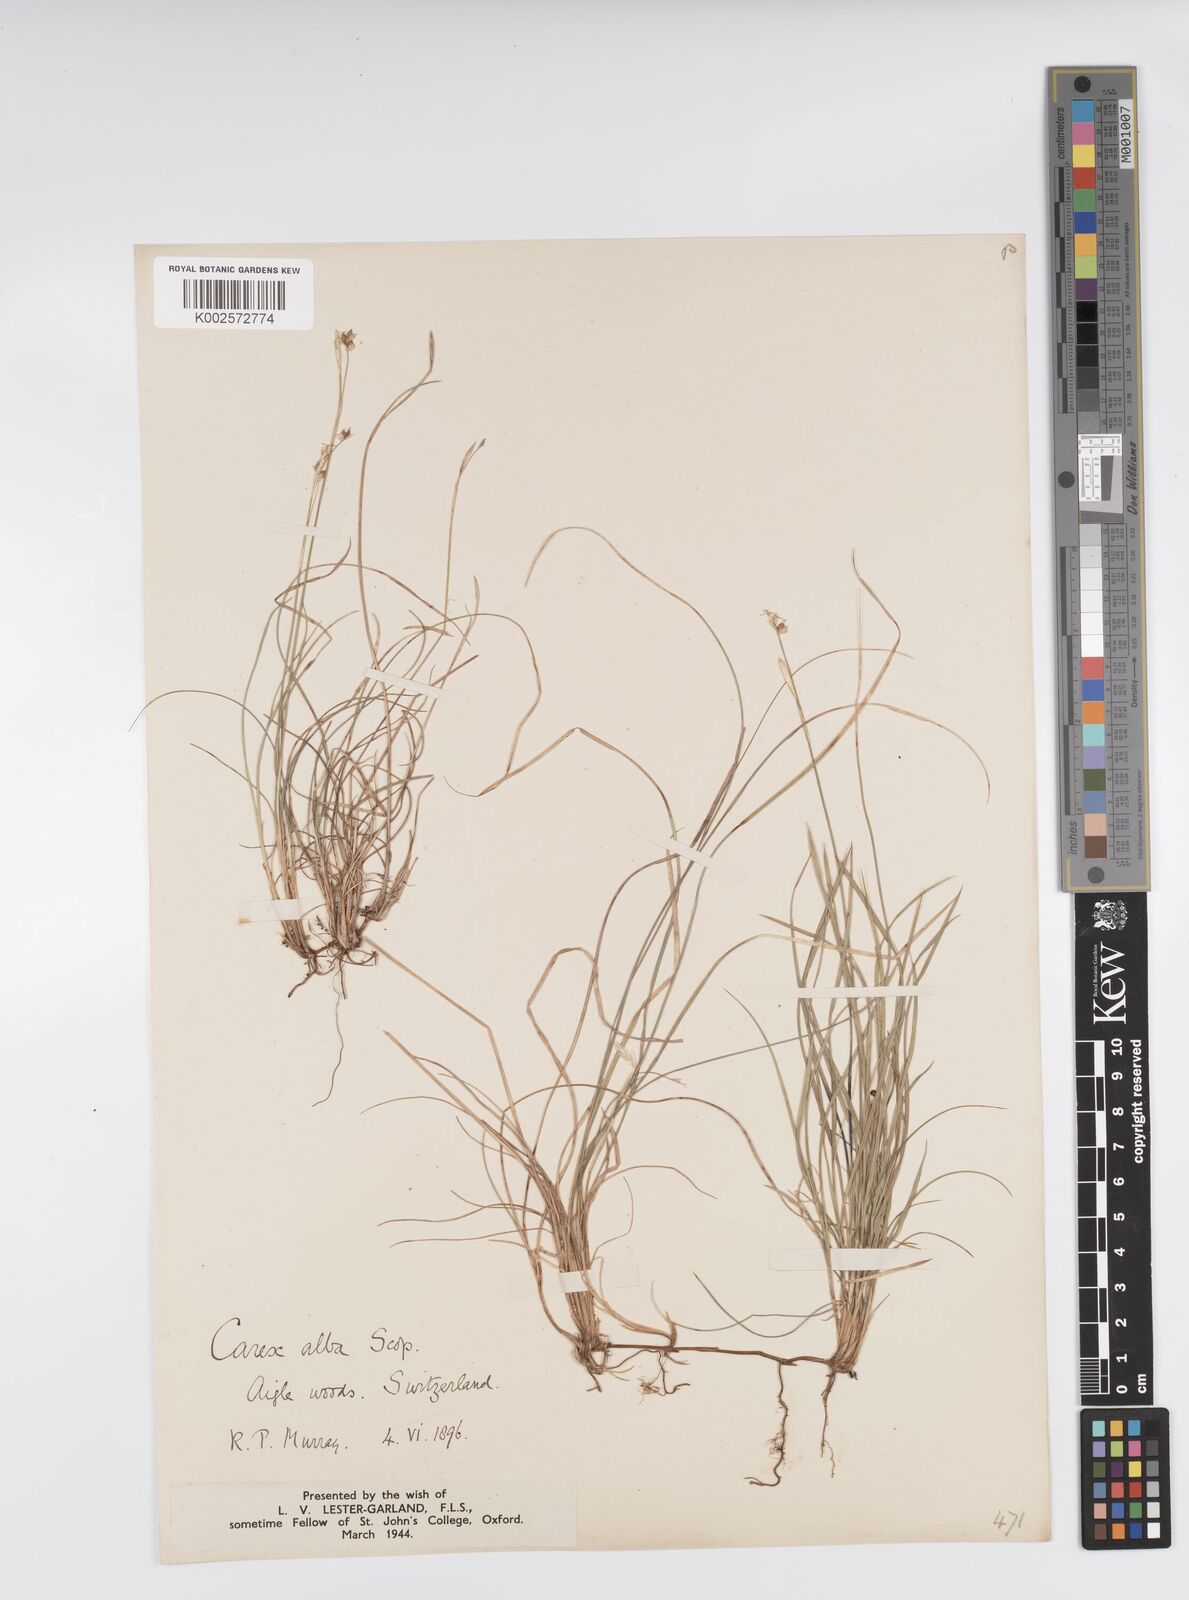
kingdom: Plantae
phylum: Tracheophyta
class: Liliopsida
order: Poales
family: Cyperaceae
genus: Carex
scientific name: Carex alba
